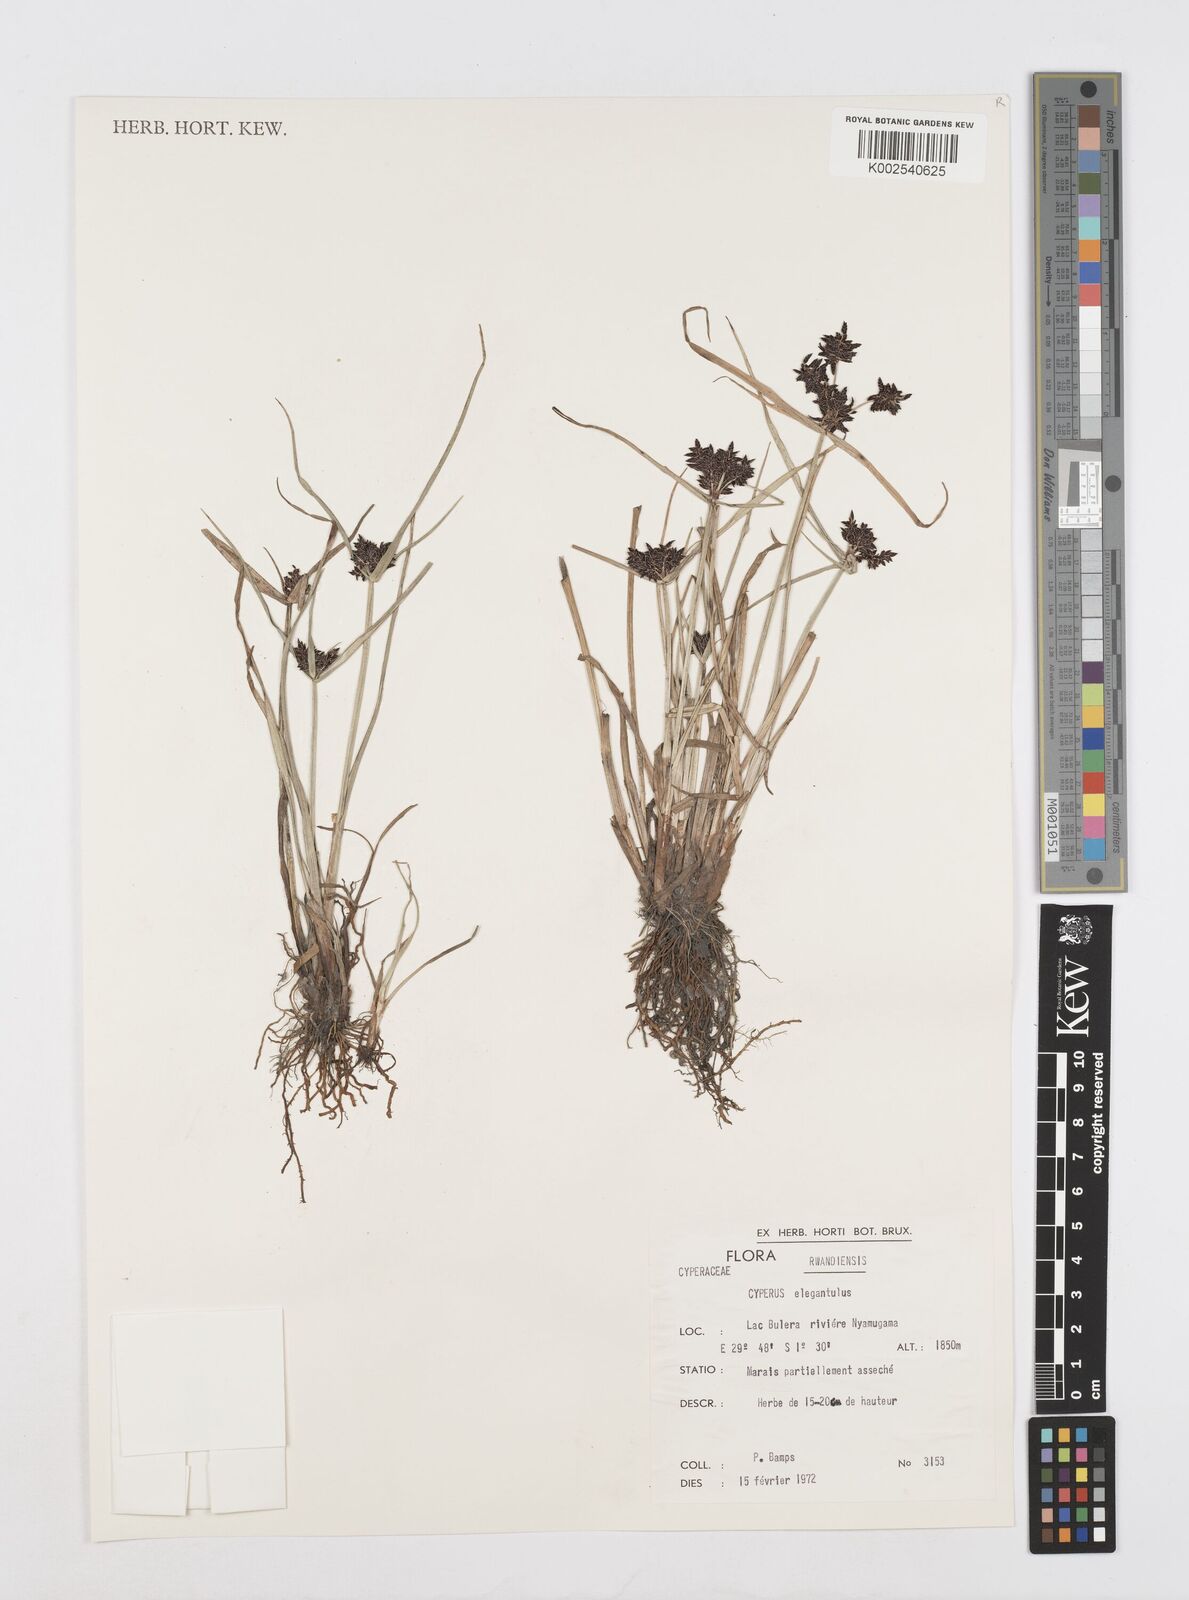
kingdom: Plantae
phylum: Tracheophyta
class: Liliopsida
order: Poales
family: Cyperaceae
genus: Cyperus
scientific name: Cyperus elegantulus
